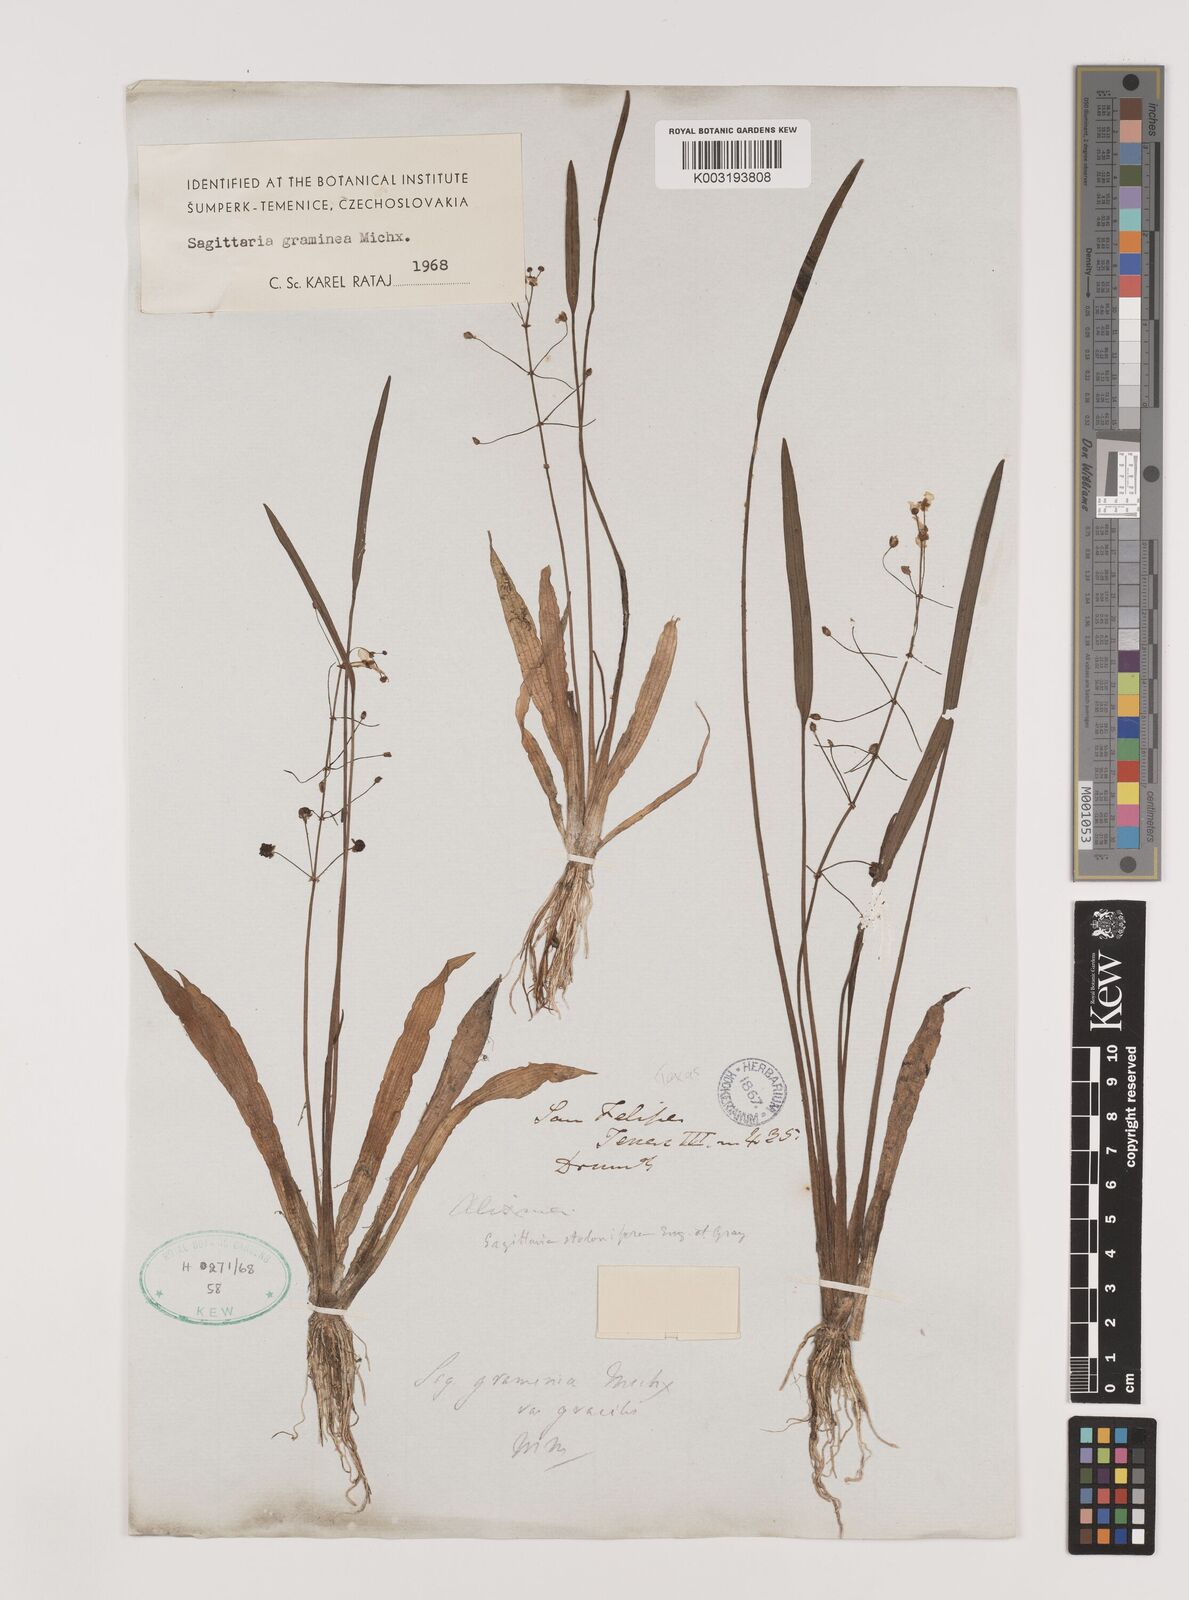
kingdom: Plantae
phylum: Tracheophyta
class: Liliopsida
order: Alismatales
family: Alismataceae
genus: Sagittaria
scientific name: Sagittaria graminea
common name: Grass-leaved arrowhead
